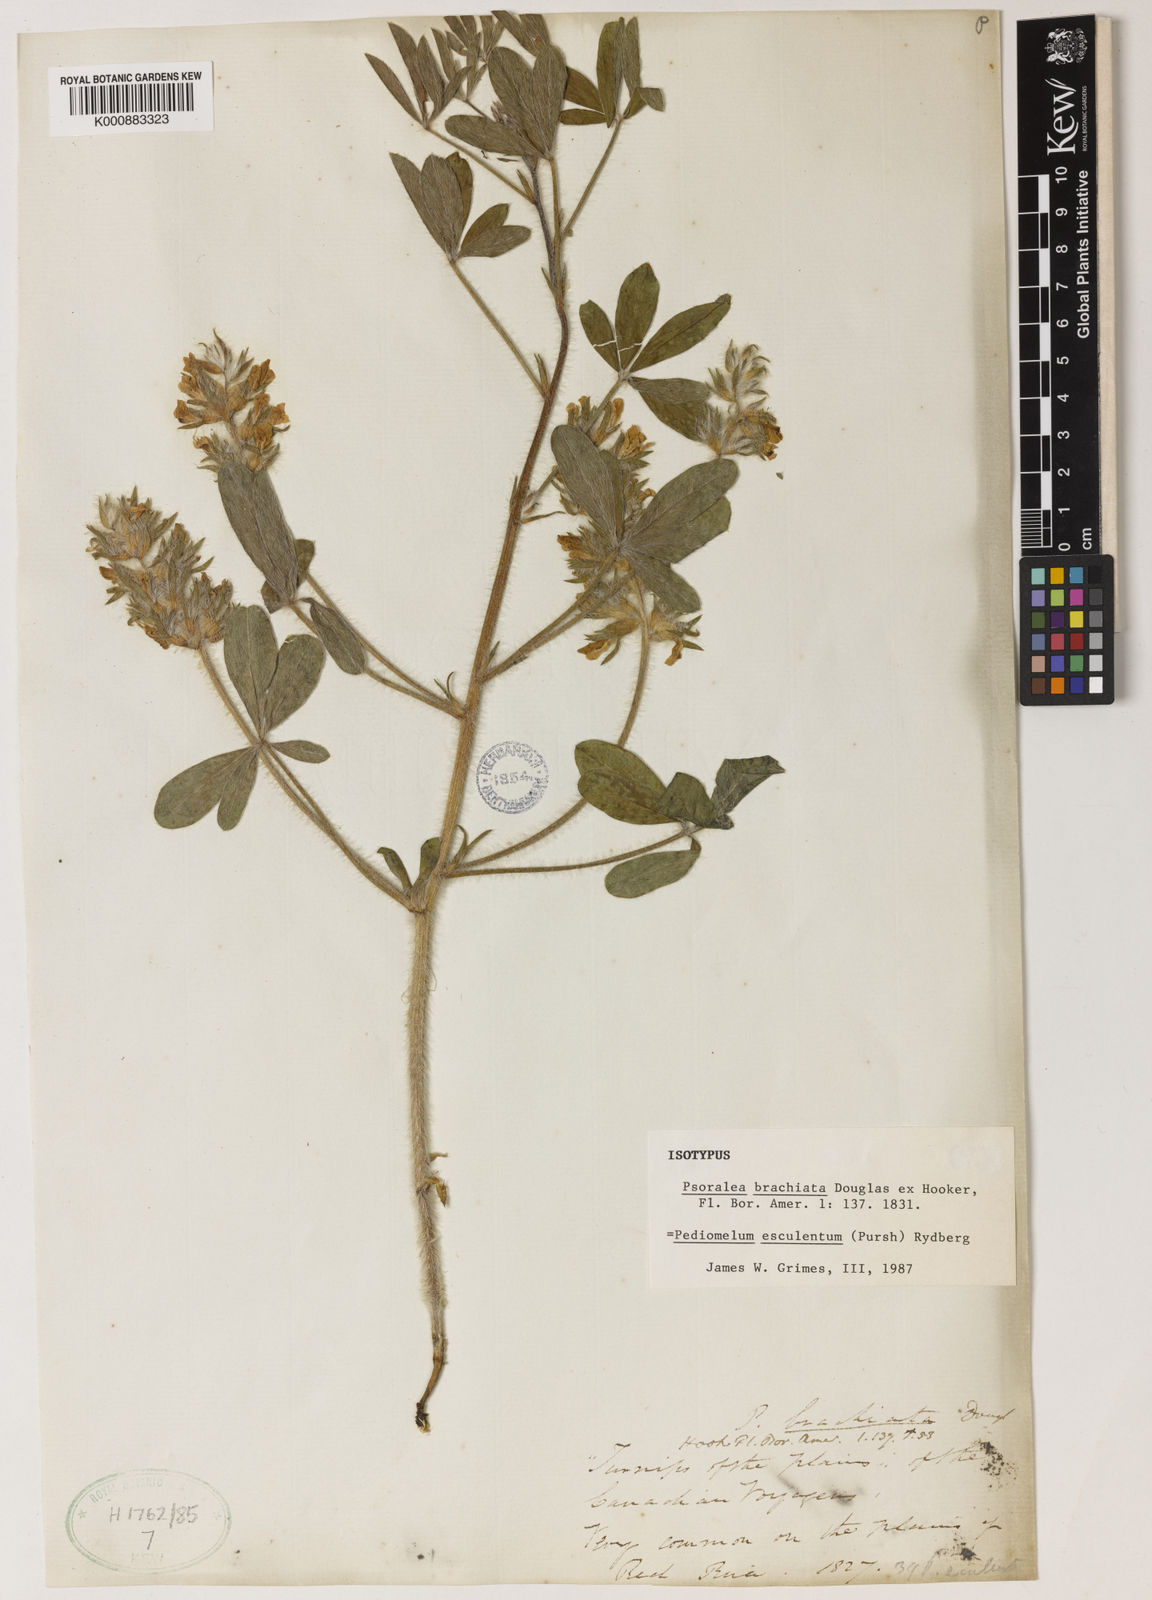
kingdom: Plantae
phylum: Tracheophyta
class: Magnoliopsida
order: Fabales
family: Fabaceae
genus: Pediomelum
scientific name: Pediomelum esculentum
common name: Indian-turnip
